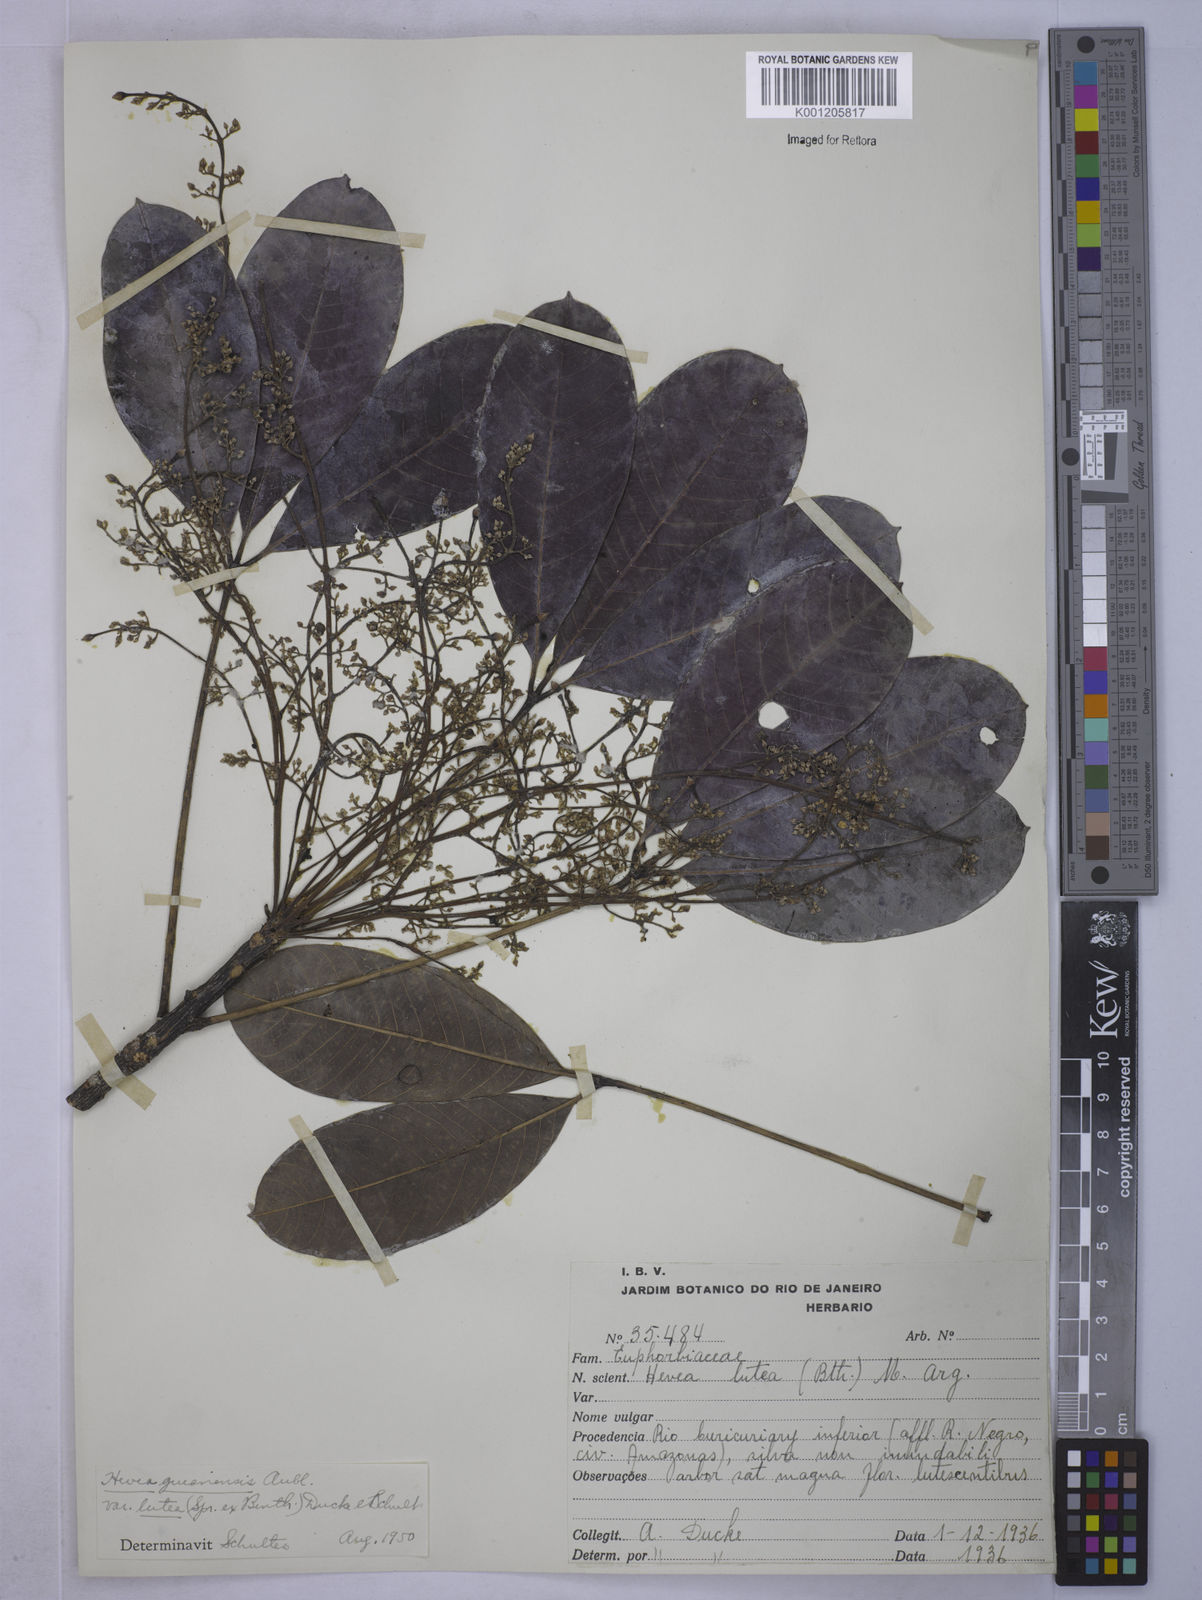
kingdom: Plantae
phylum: Tracheophyta
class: Magnoliopsida
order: Malpighiales
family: Euphorbiaceae
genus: Hevea
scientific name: Hevea guianensis
